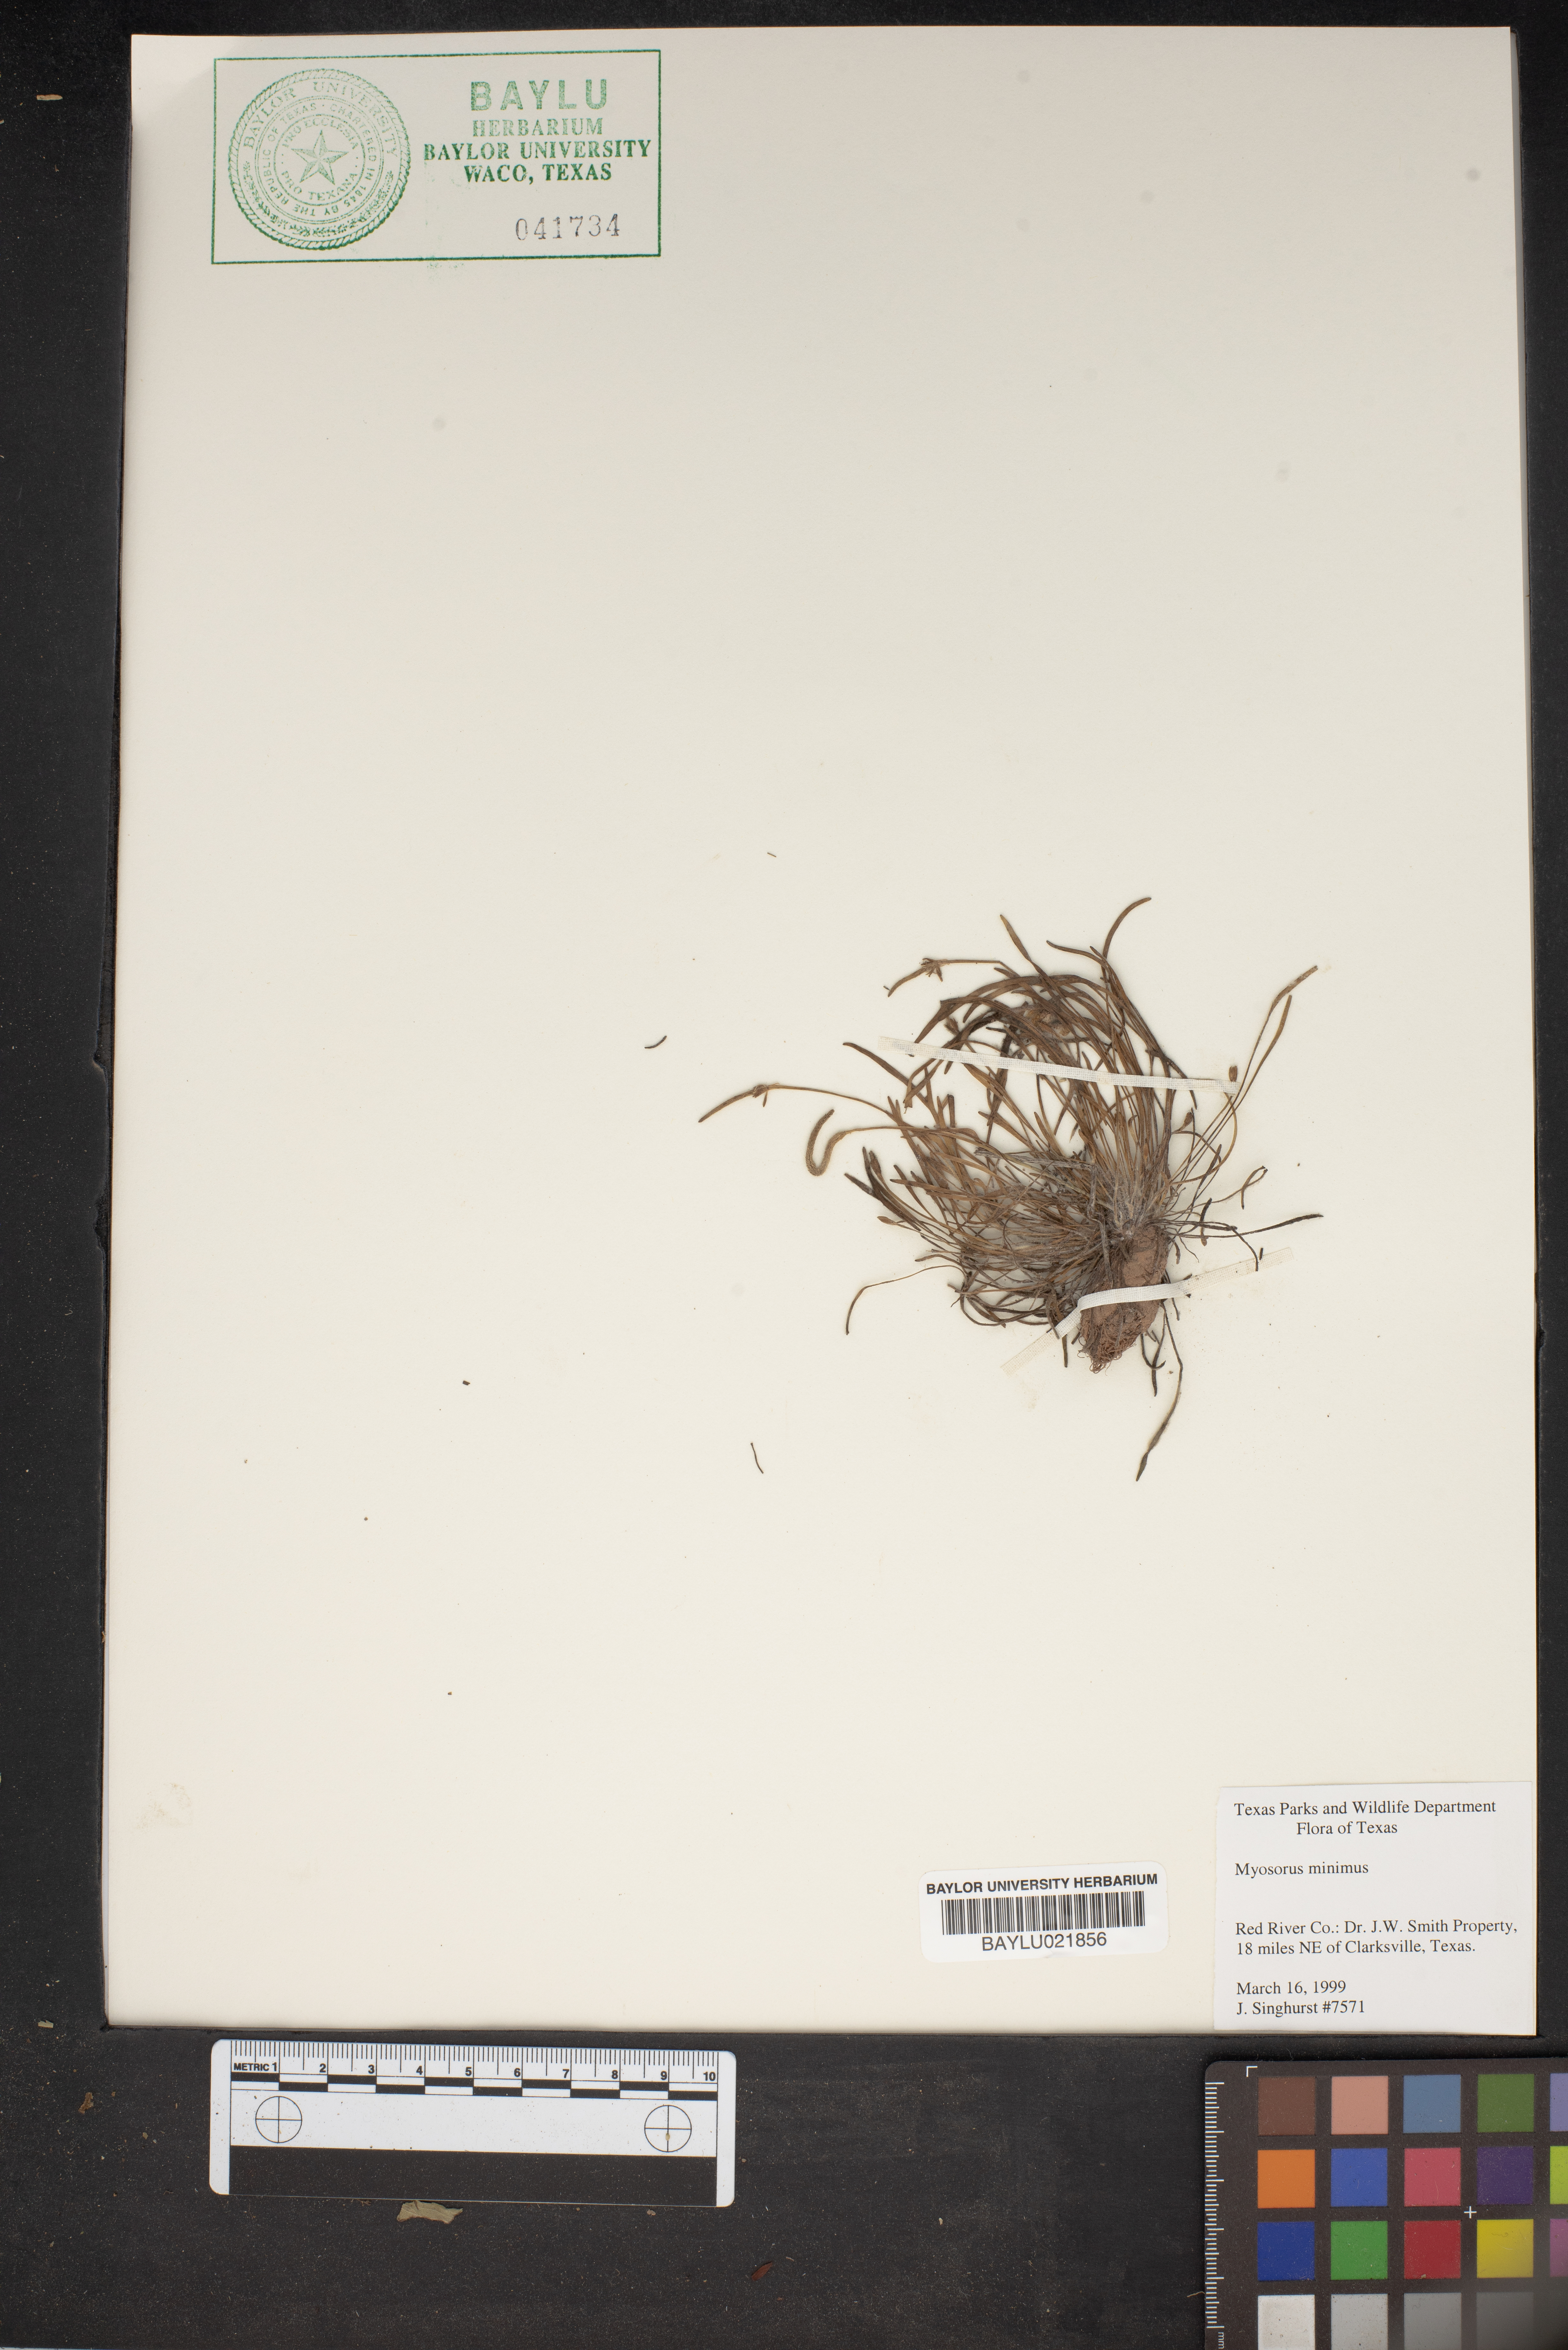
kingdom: Plantae
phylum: Tracheophyta
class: Magnoliopsida
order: Ranunculales
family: Ranunculaceae
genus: Myosurus
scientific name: Myosurus minimus
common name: Mousetail
